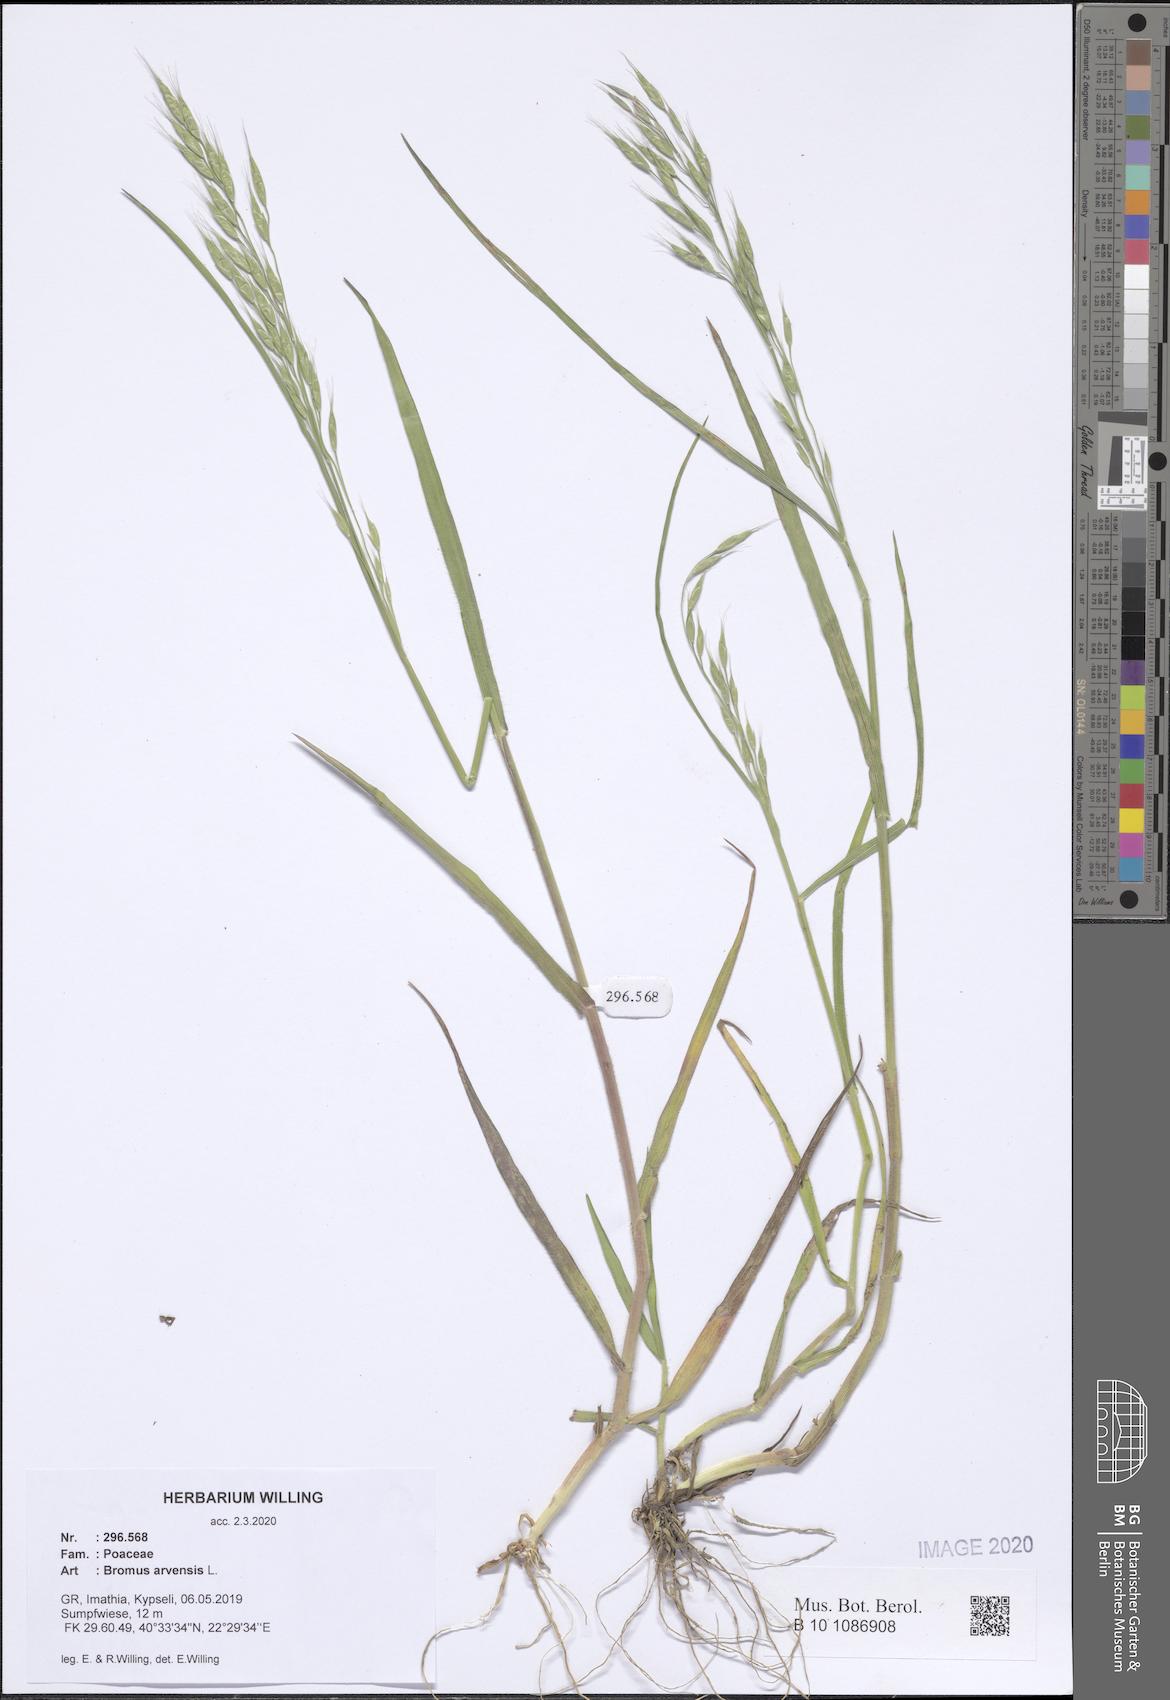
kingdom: Plantae
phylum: Tracheophyta
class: Liliopsida
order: Poales
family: Poaceae
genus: Bromus
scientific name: Bromus arvensis
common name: Field brome
